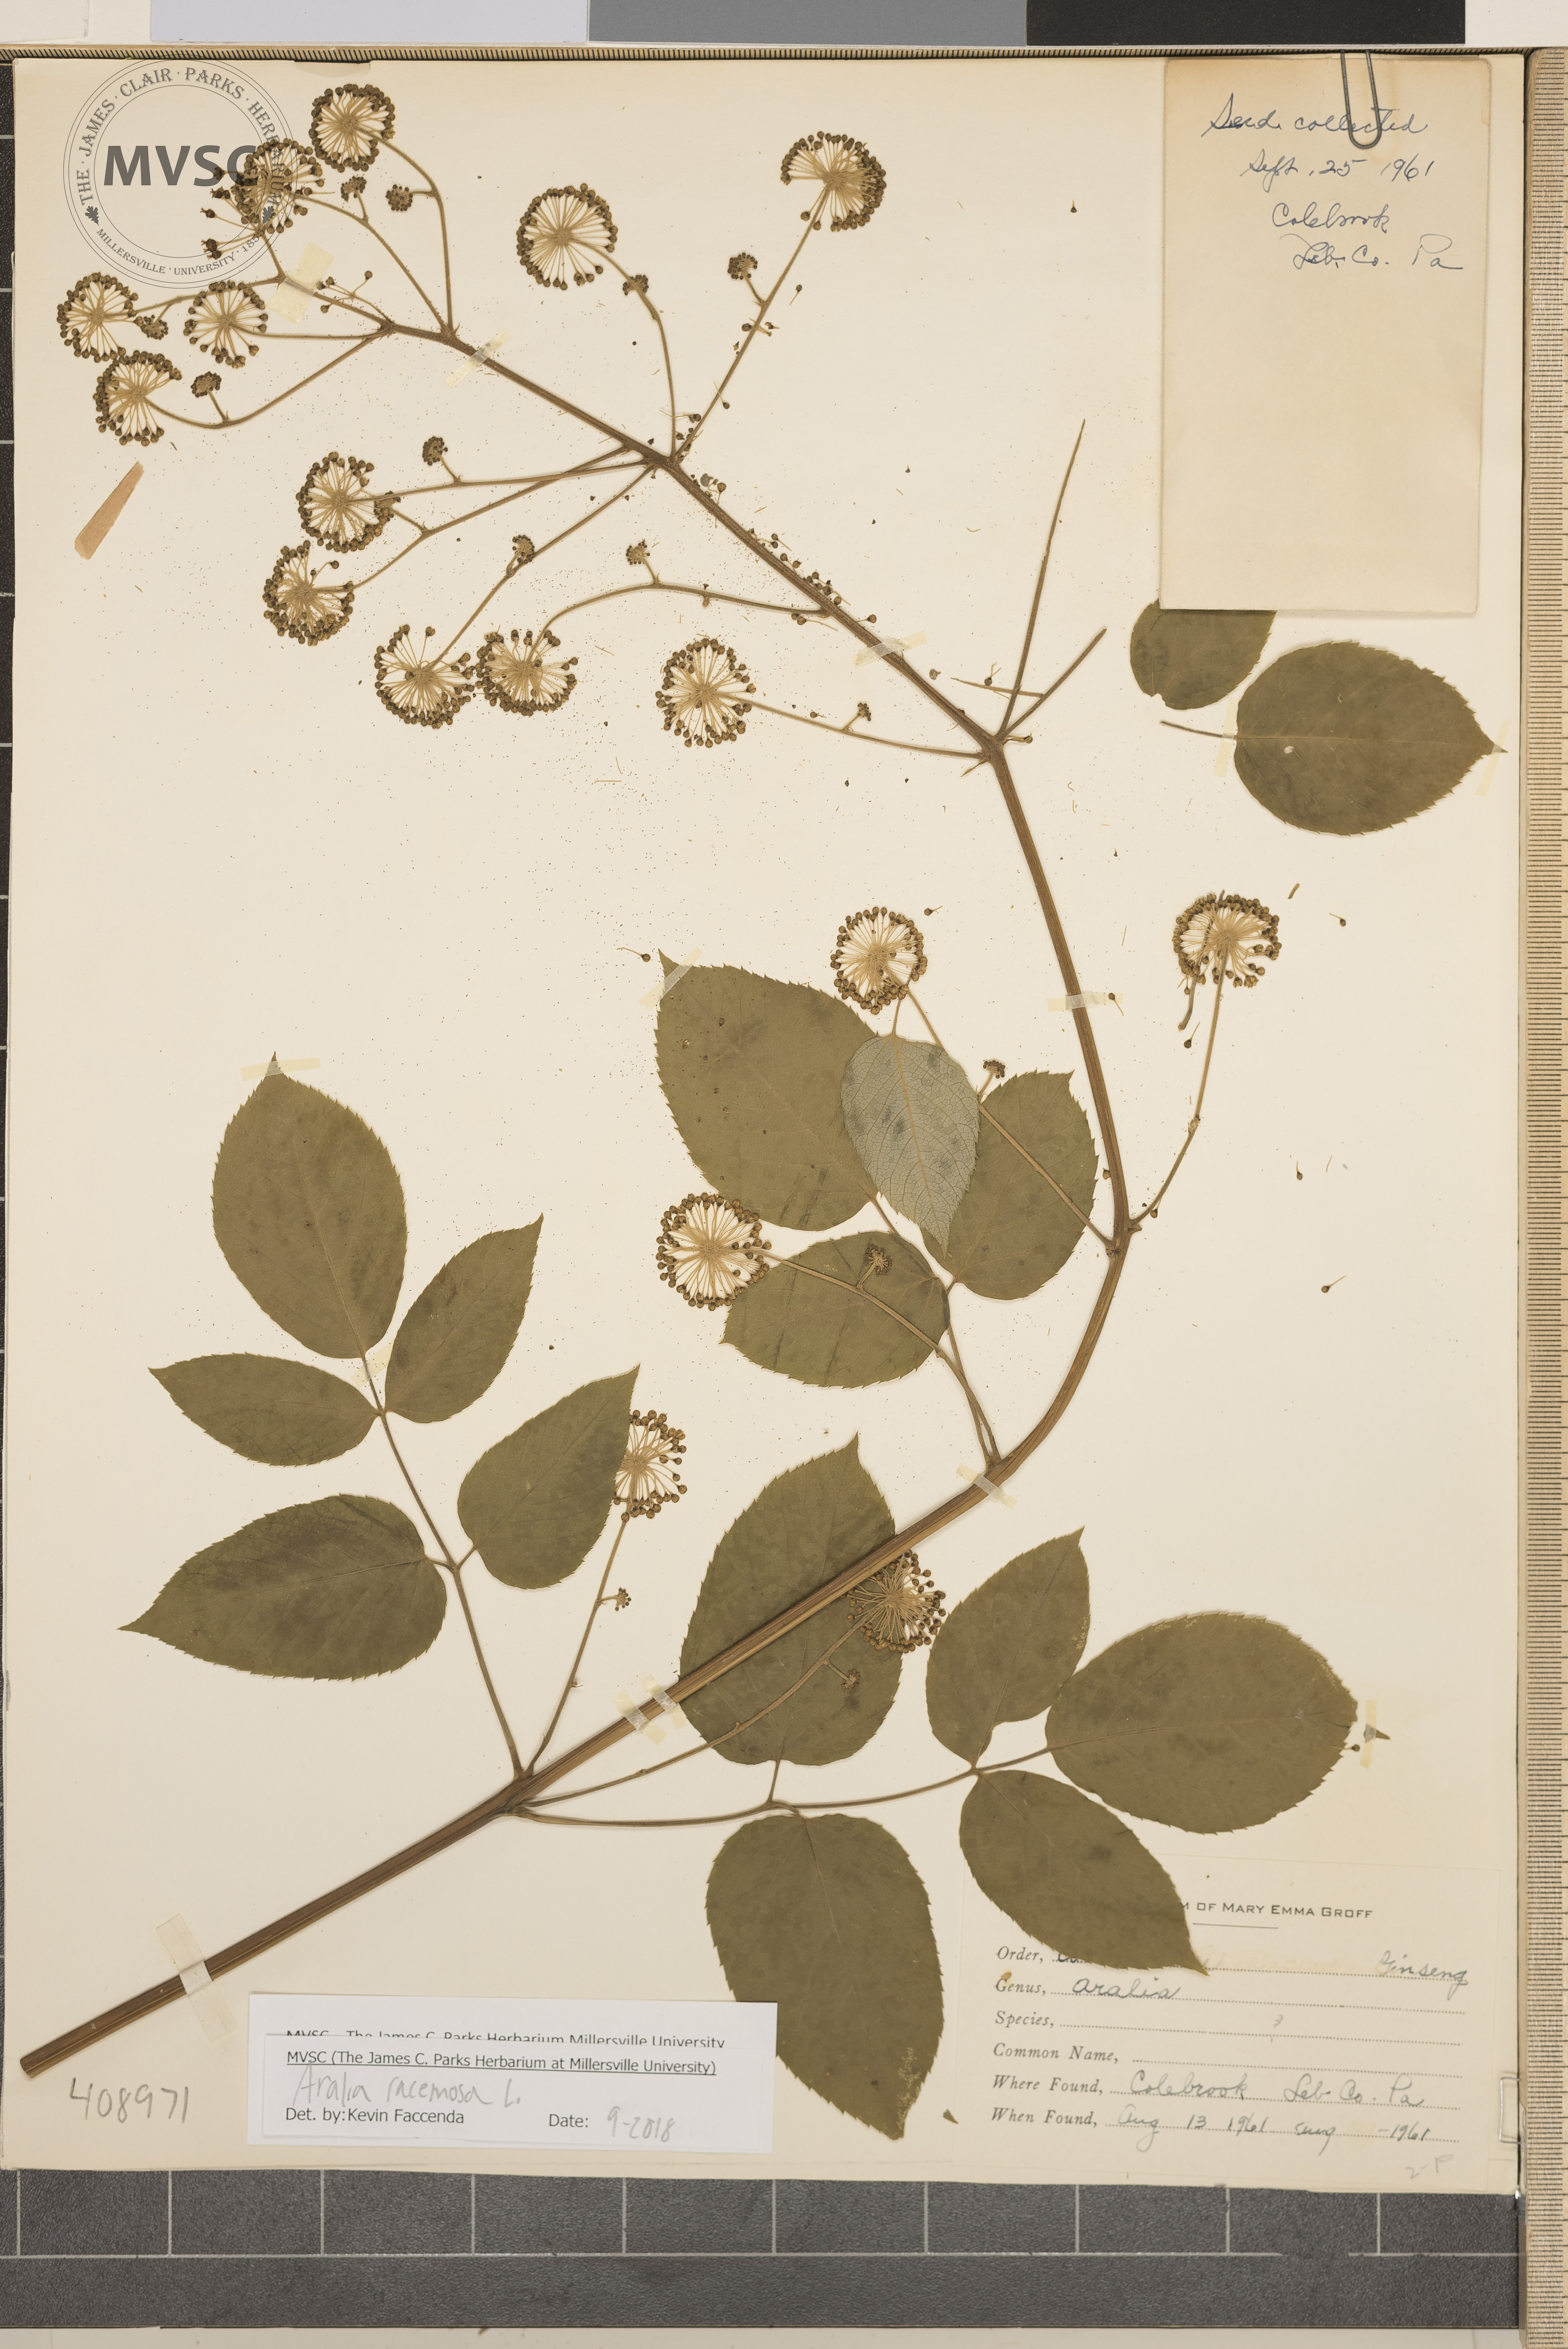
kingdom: Plantae
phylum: Tracheophyta
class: Magnoliopsida
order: Apiales
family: Araliaceae
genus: Aralia
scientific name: Aralia racemosa
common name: American-spikenard
